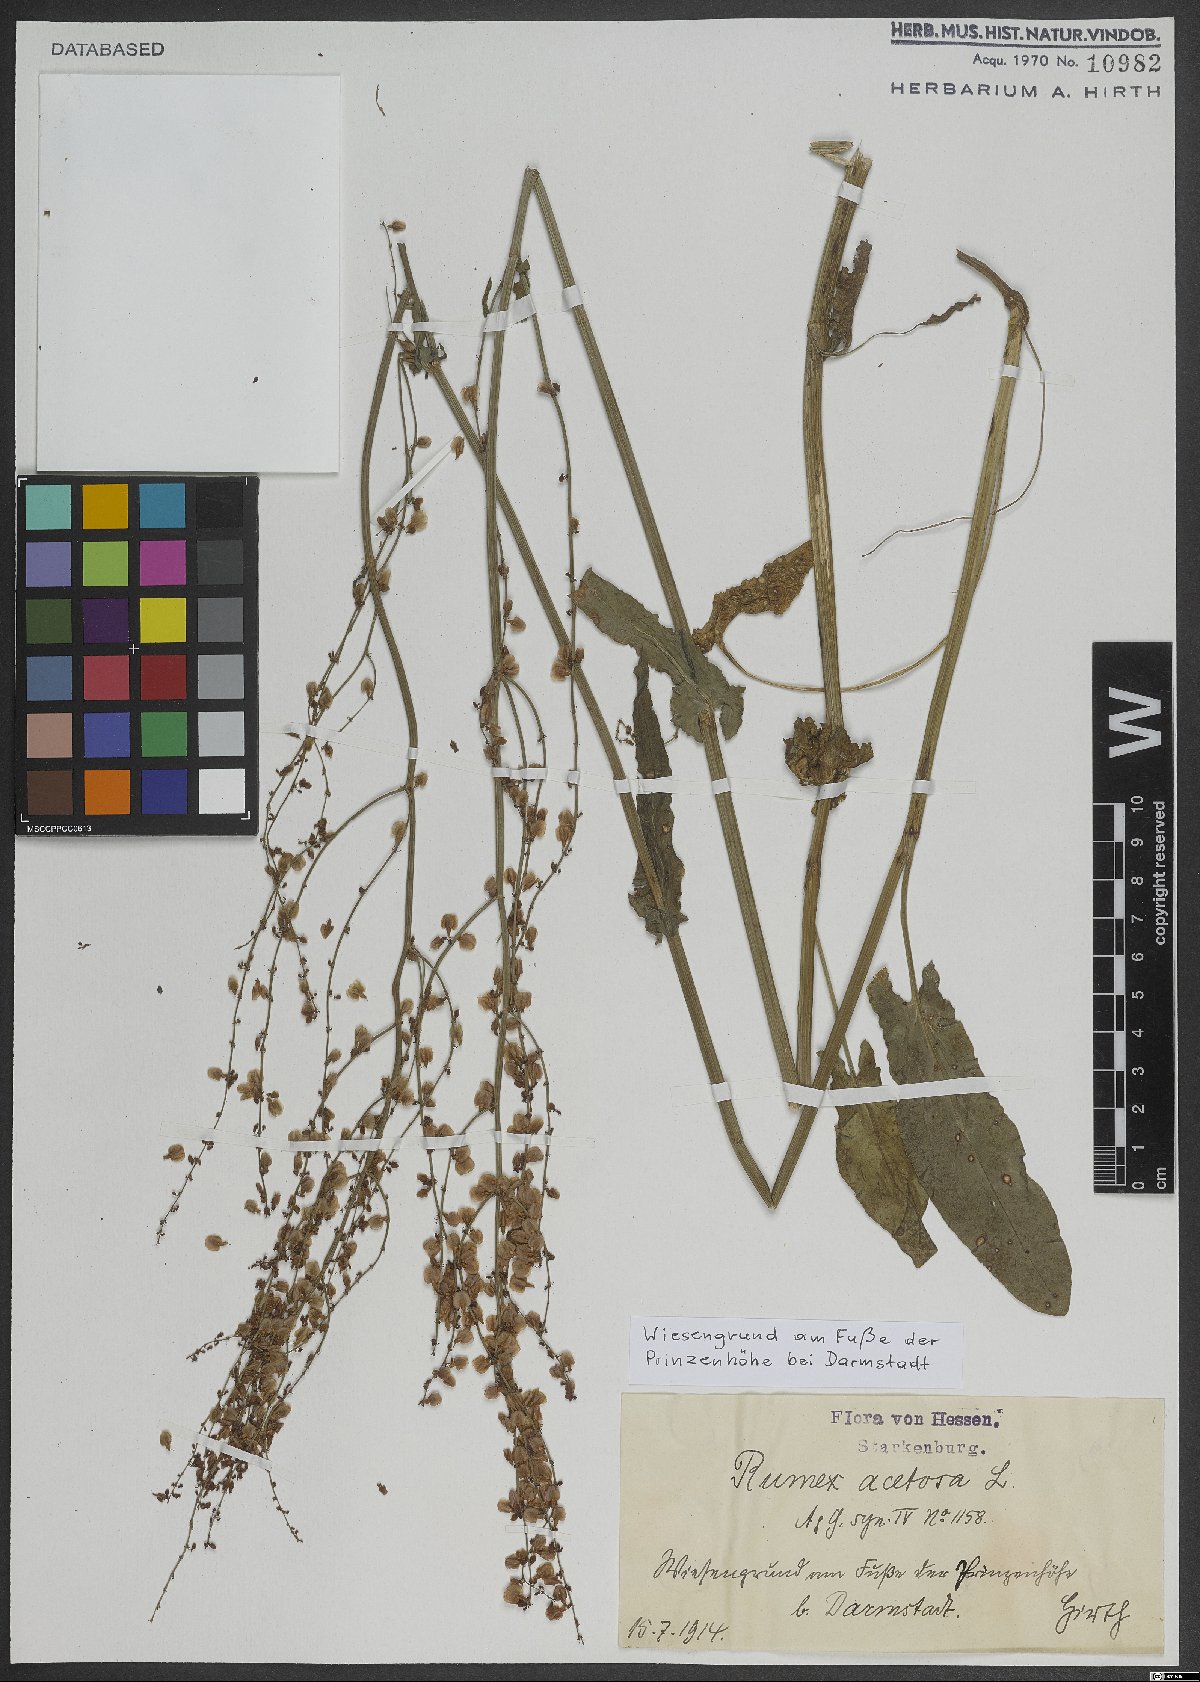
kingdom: Plantae
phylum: Tracheophyta
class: Magnoliopsida
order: Caryophyllales
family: Polygonaceae
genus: Rumex
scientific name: Rumex acetosa
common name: Garden sorrel
